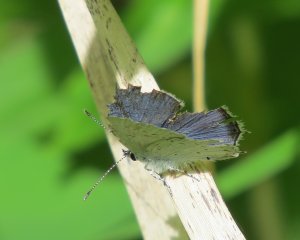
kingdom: Animalia
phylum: Arthropoda
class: Insecta
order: Lepidoptera
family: Lycaenidae
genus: Elkalyce
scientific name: Elkalyce amyntula
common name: Western Tailed-Blue
